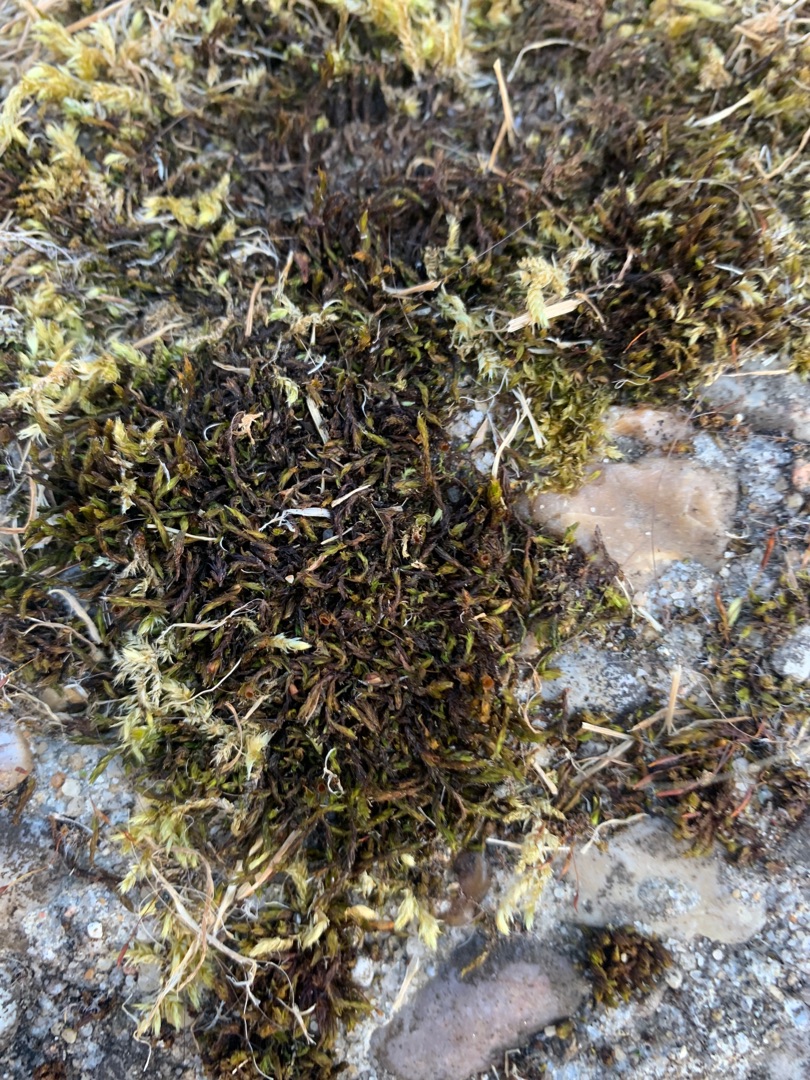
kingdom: Plantae
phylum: Bryophyta
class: Bryopsida
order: Grimmiales
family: Grimmiaceae
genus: Schistidium
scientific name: Schistidium apocarpum
